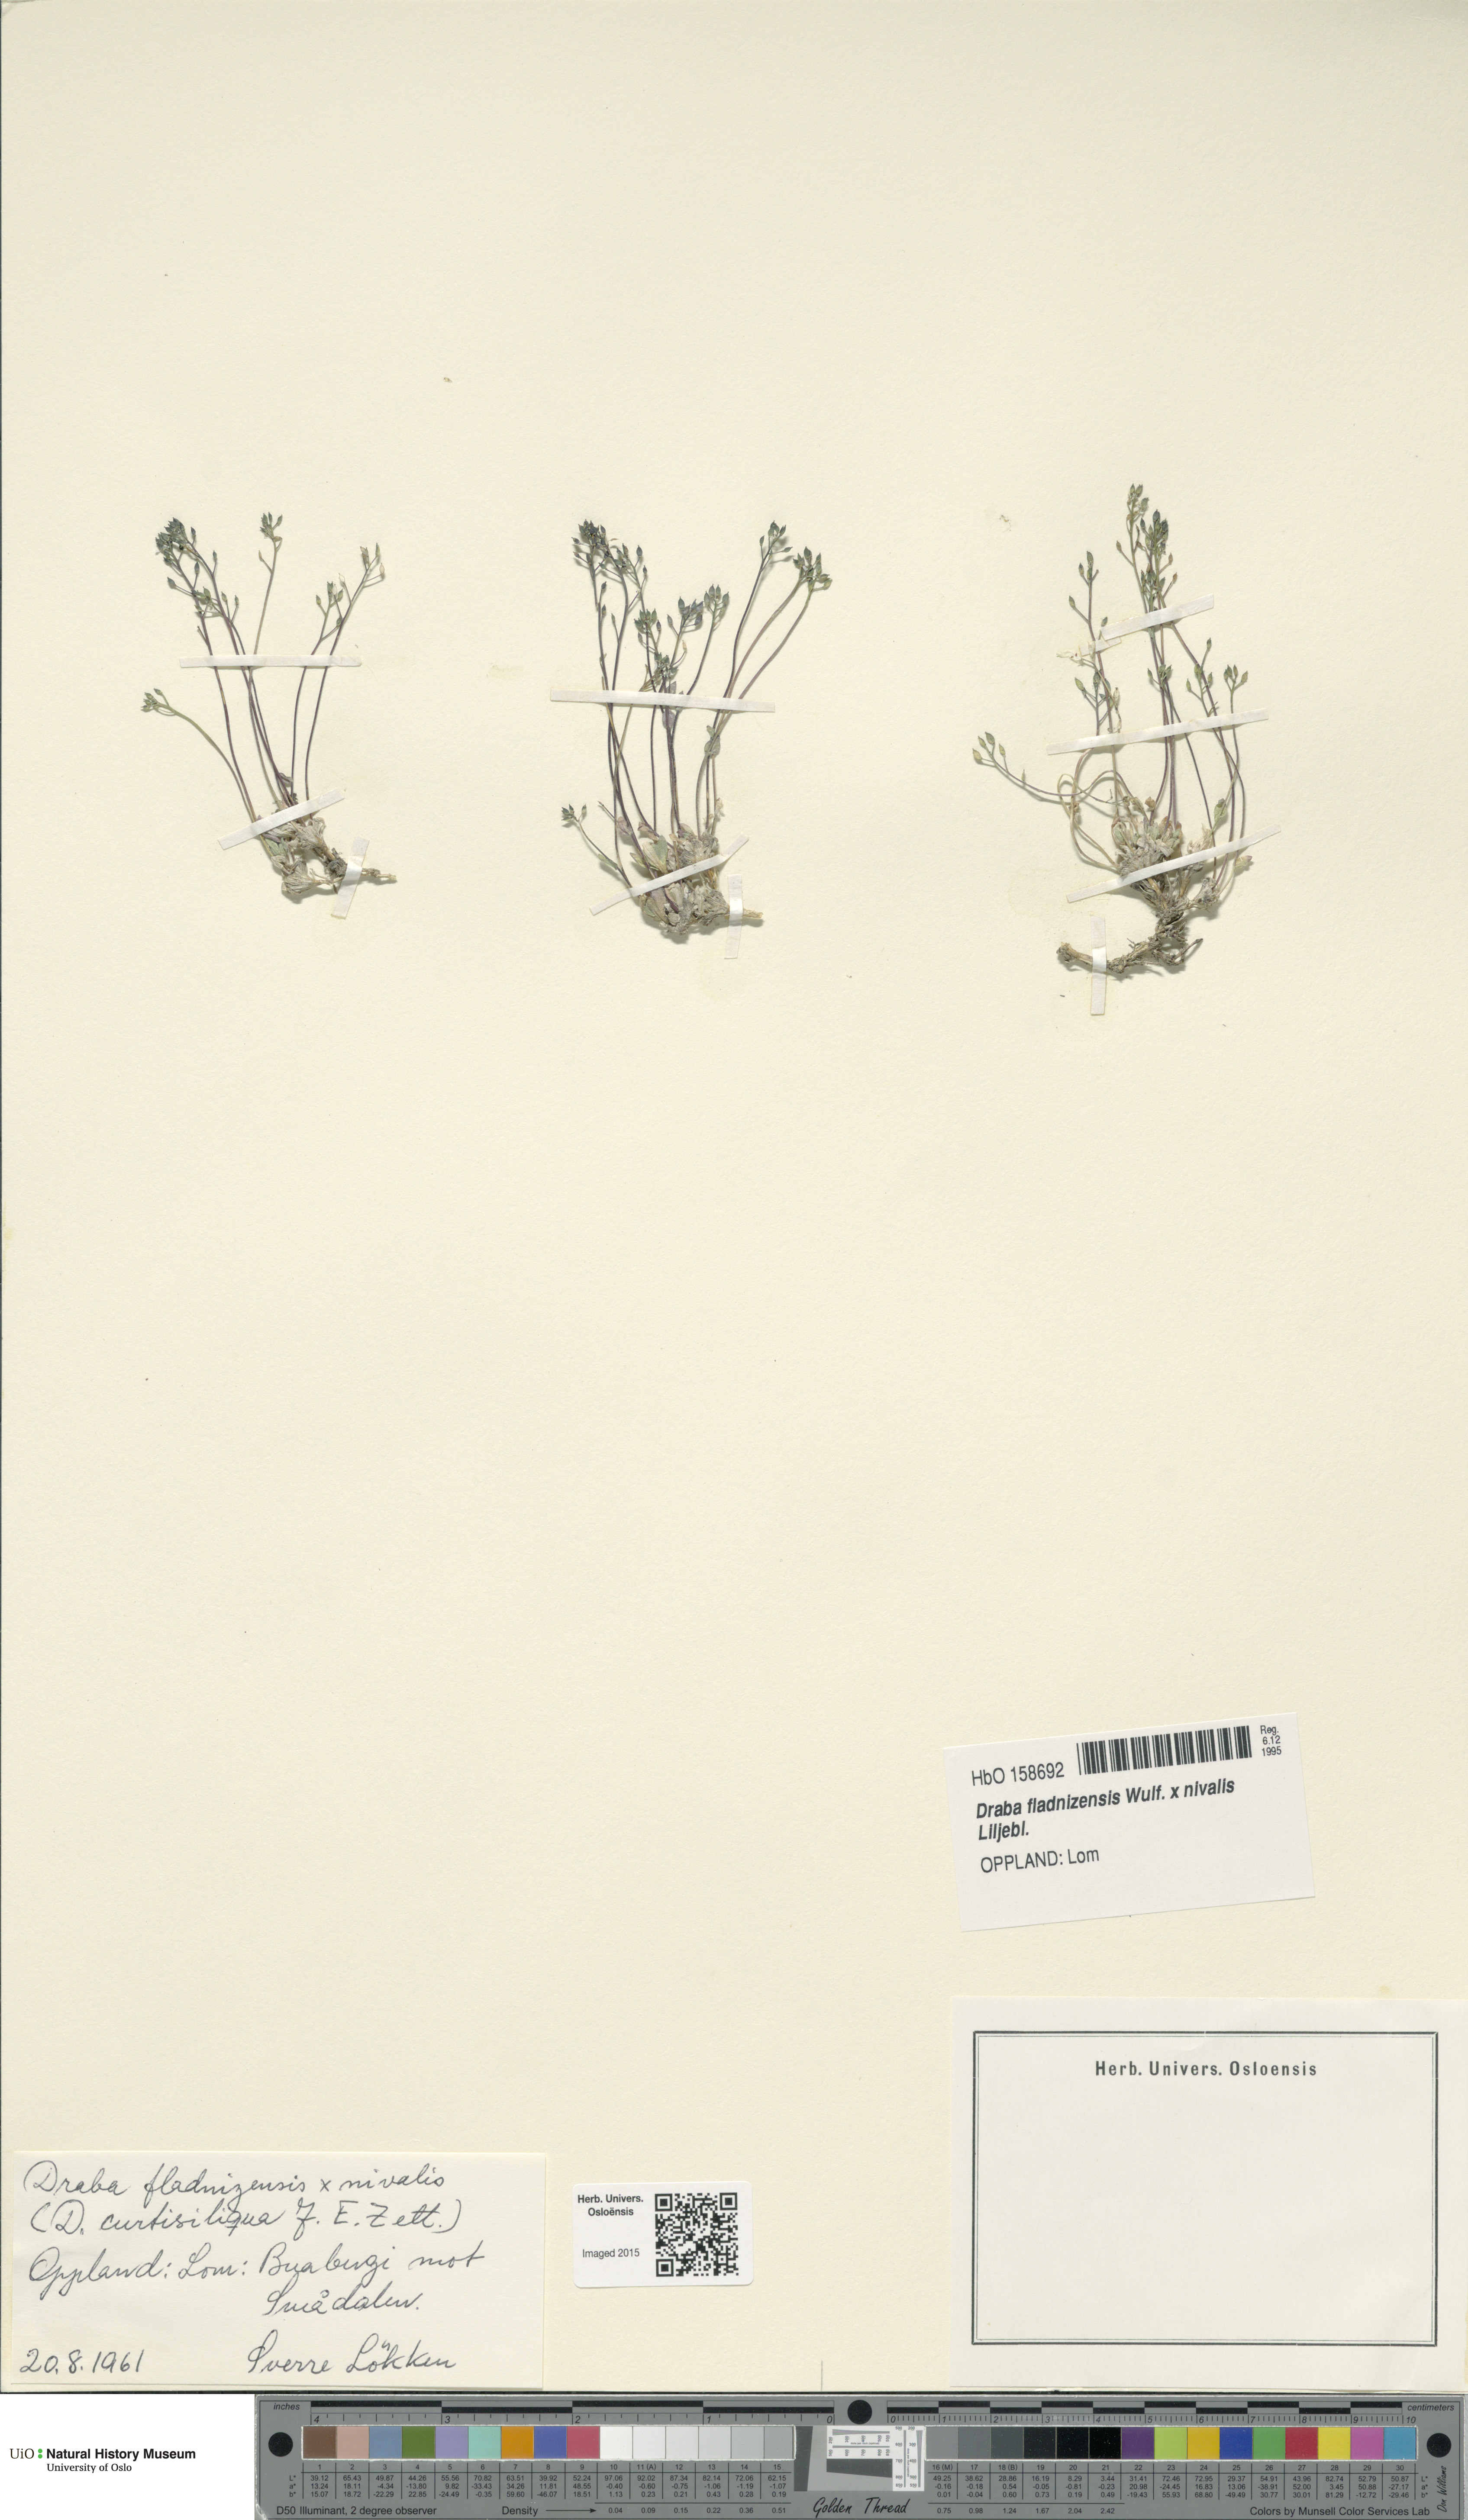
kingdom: Plantae
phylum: Tracheophyta
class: Magnoliopsida
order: Brassicales
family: Brassicaceae
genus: Draba
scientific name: Draba
